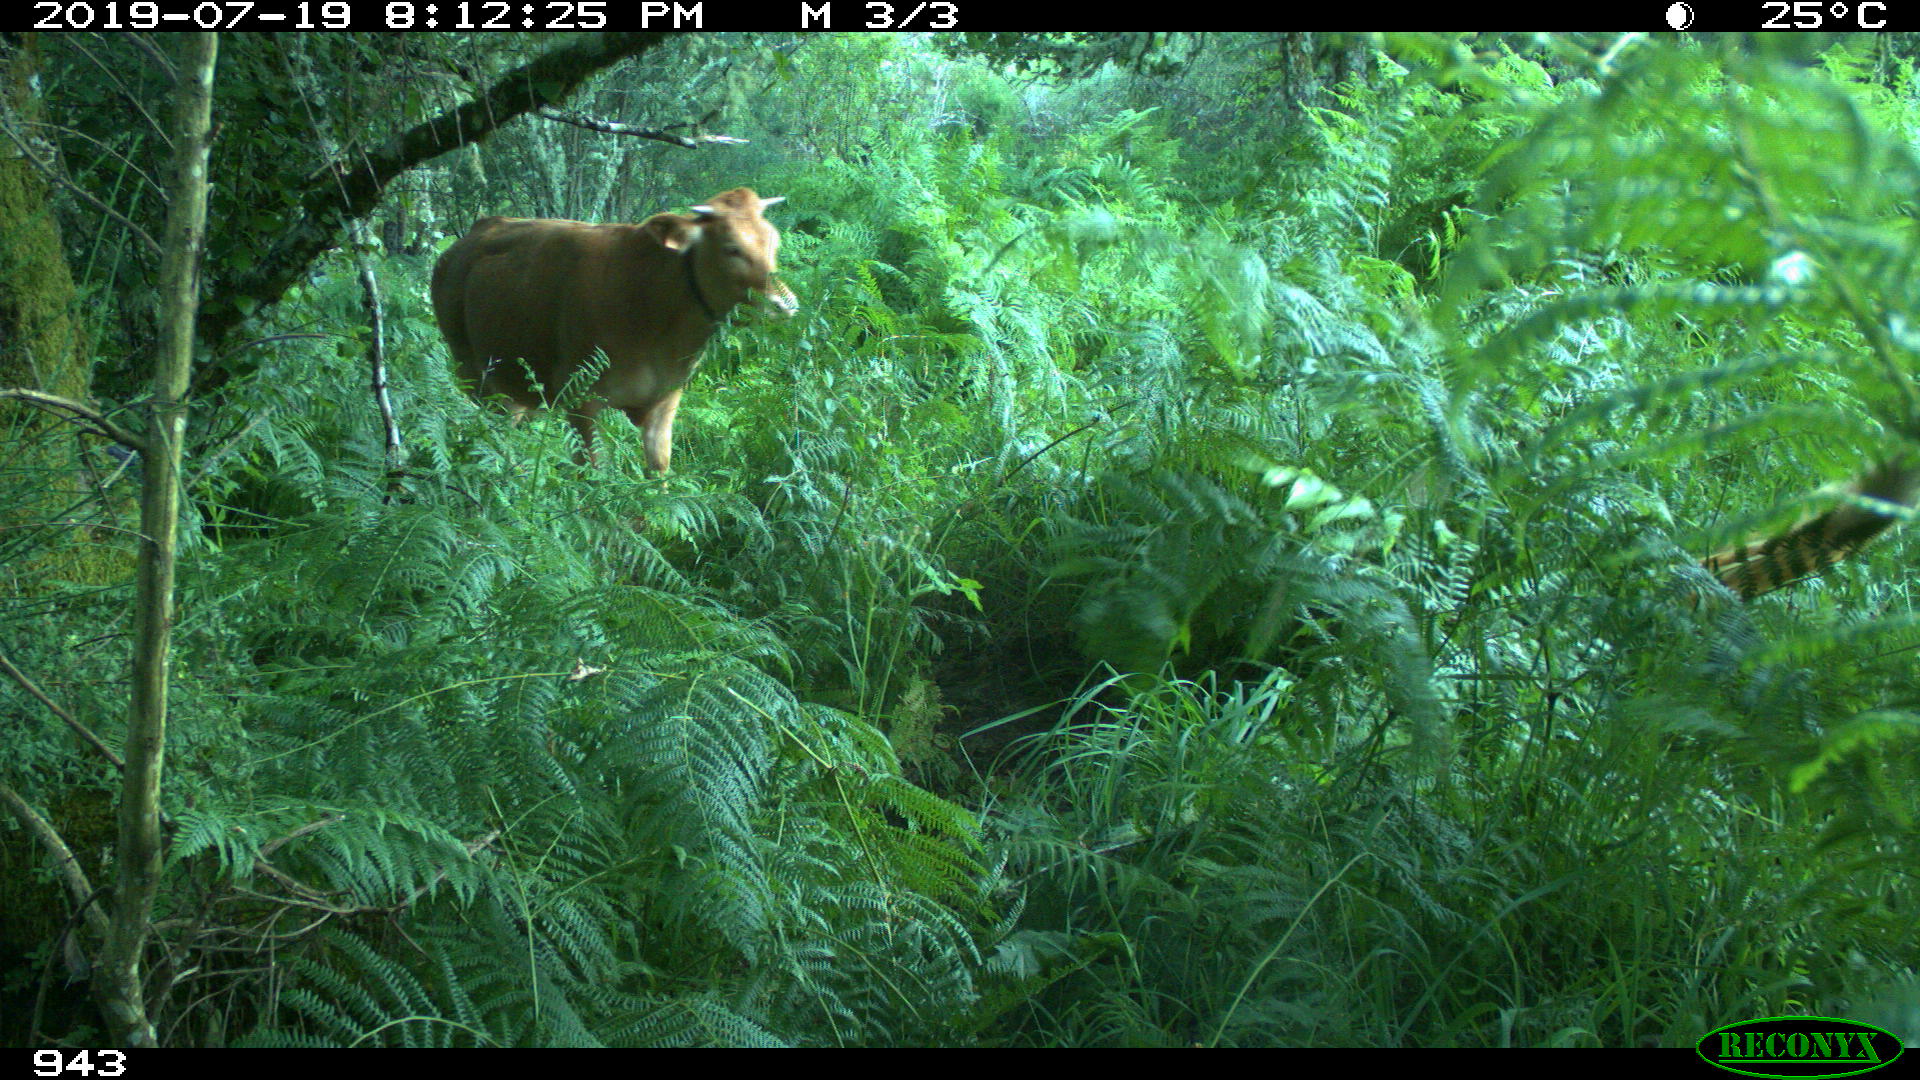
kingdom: Animalia
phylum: Chordata
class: Mammalia
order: Artiodactyla
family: Bovidae
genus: Bos
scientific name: Bos taurus
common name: Domesticated cattle
